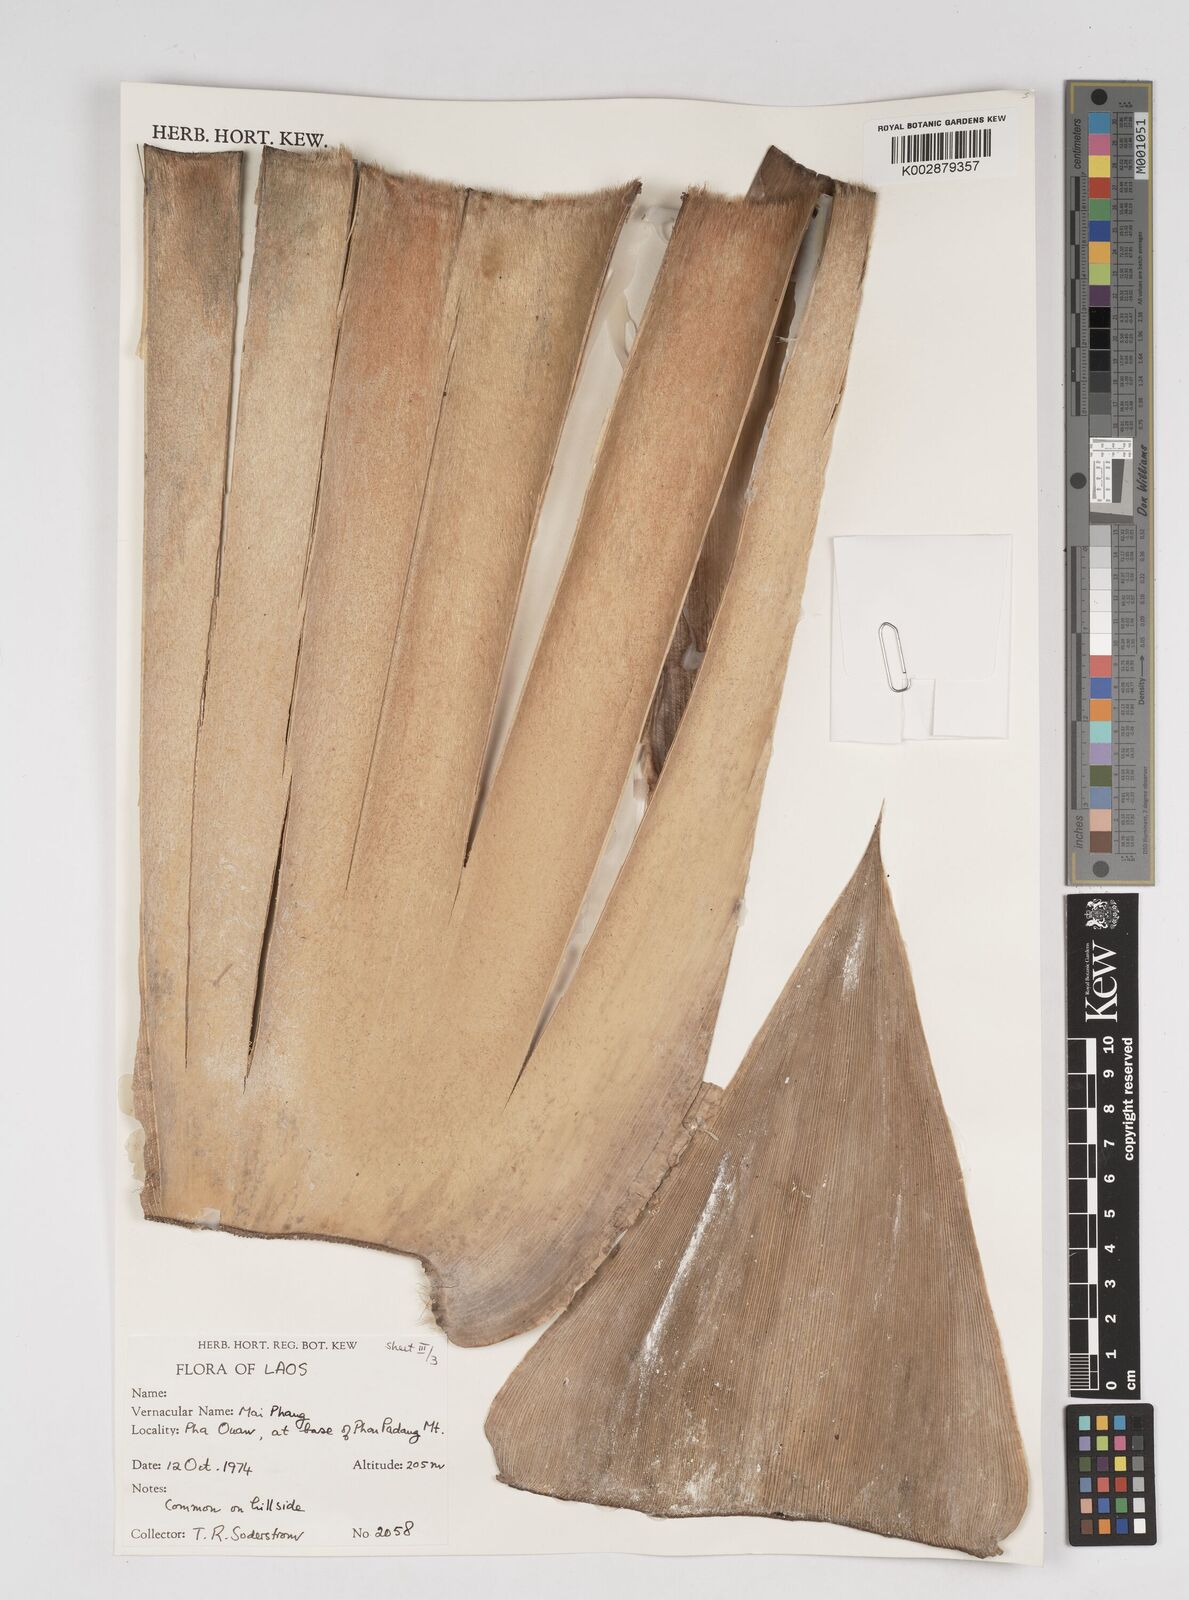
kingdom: Plantae
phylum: Tracheophyta
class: Liliopsida
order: Poales
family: Poaceae
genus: Dendrocalamus
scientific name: Dendrocalamus
